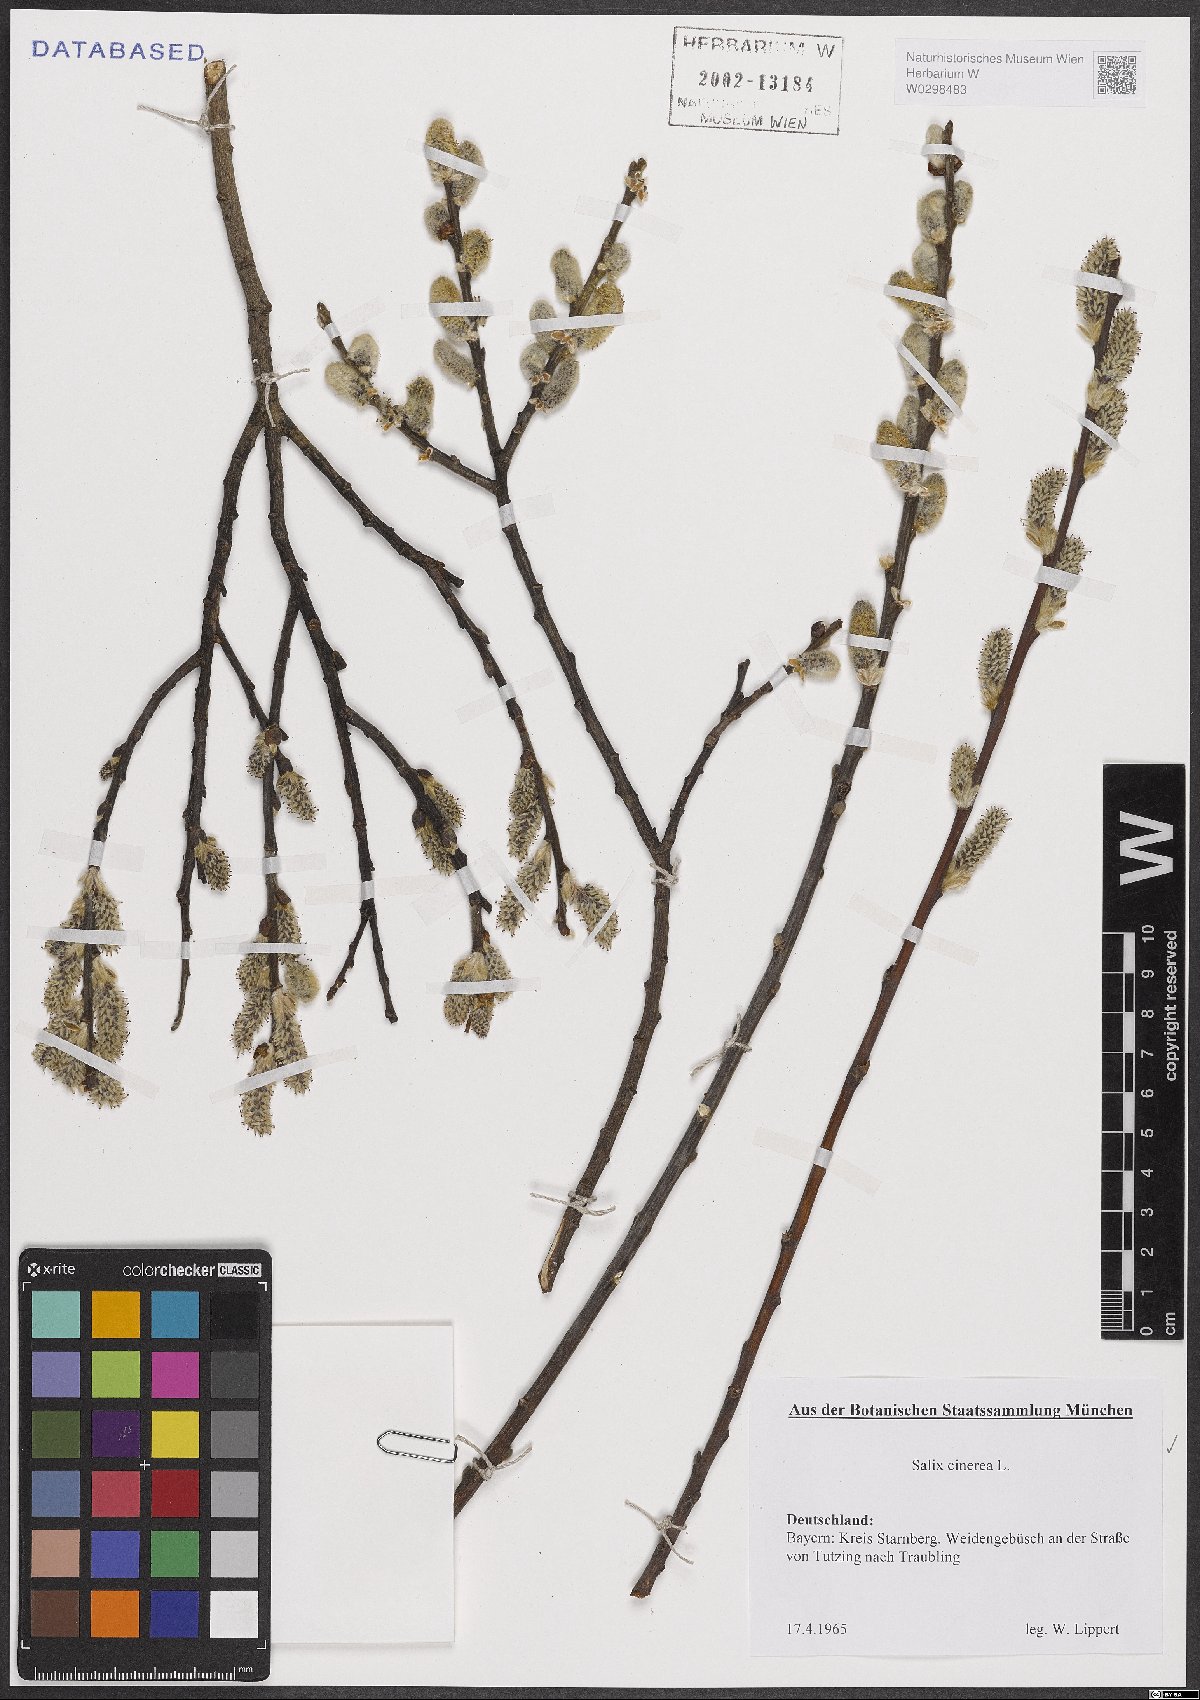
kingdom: Plantae
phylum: Tracheophyta
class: Magnoliopsida
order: Malpighiales
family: Salicaceae
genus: Salix
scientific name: Salix cinerea
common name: Common sallow
